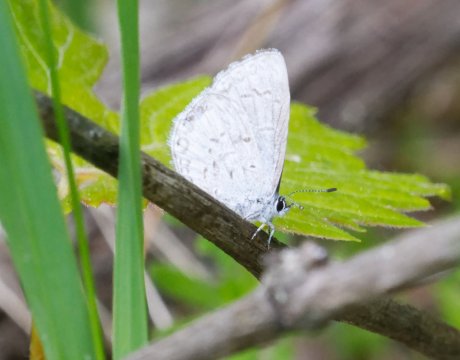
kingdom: Animalia
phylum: Arthropoda
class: Insecta
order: Lepidoptera
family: Lycaenidae
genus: Celastrina
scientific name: Celastrina serotina
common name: Cherry Gall Azure
